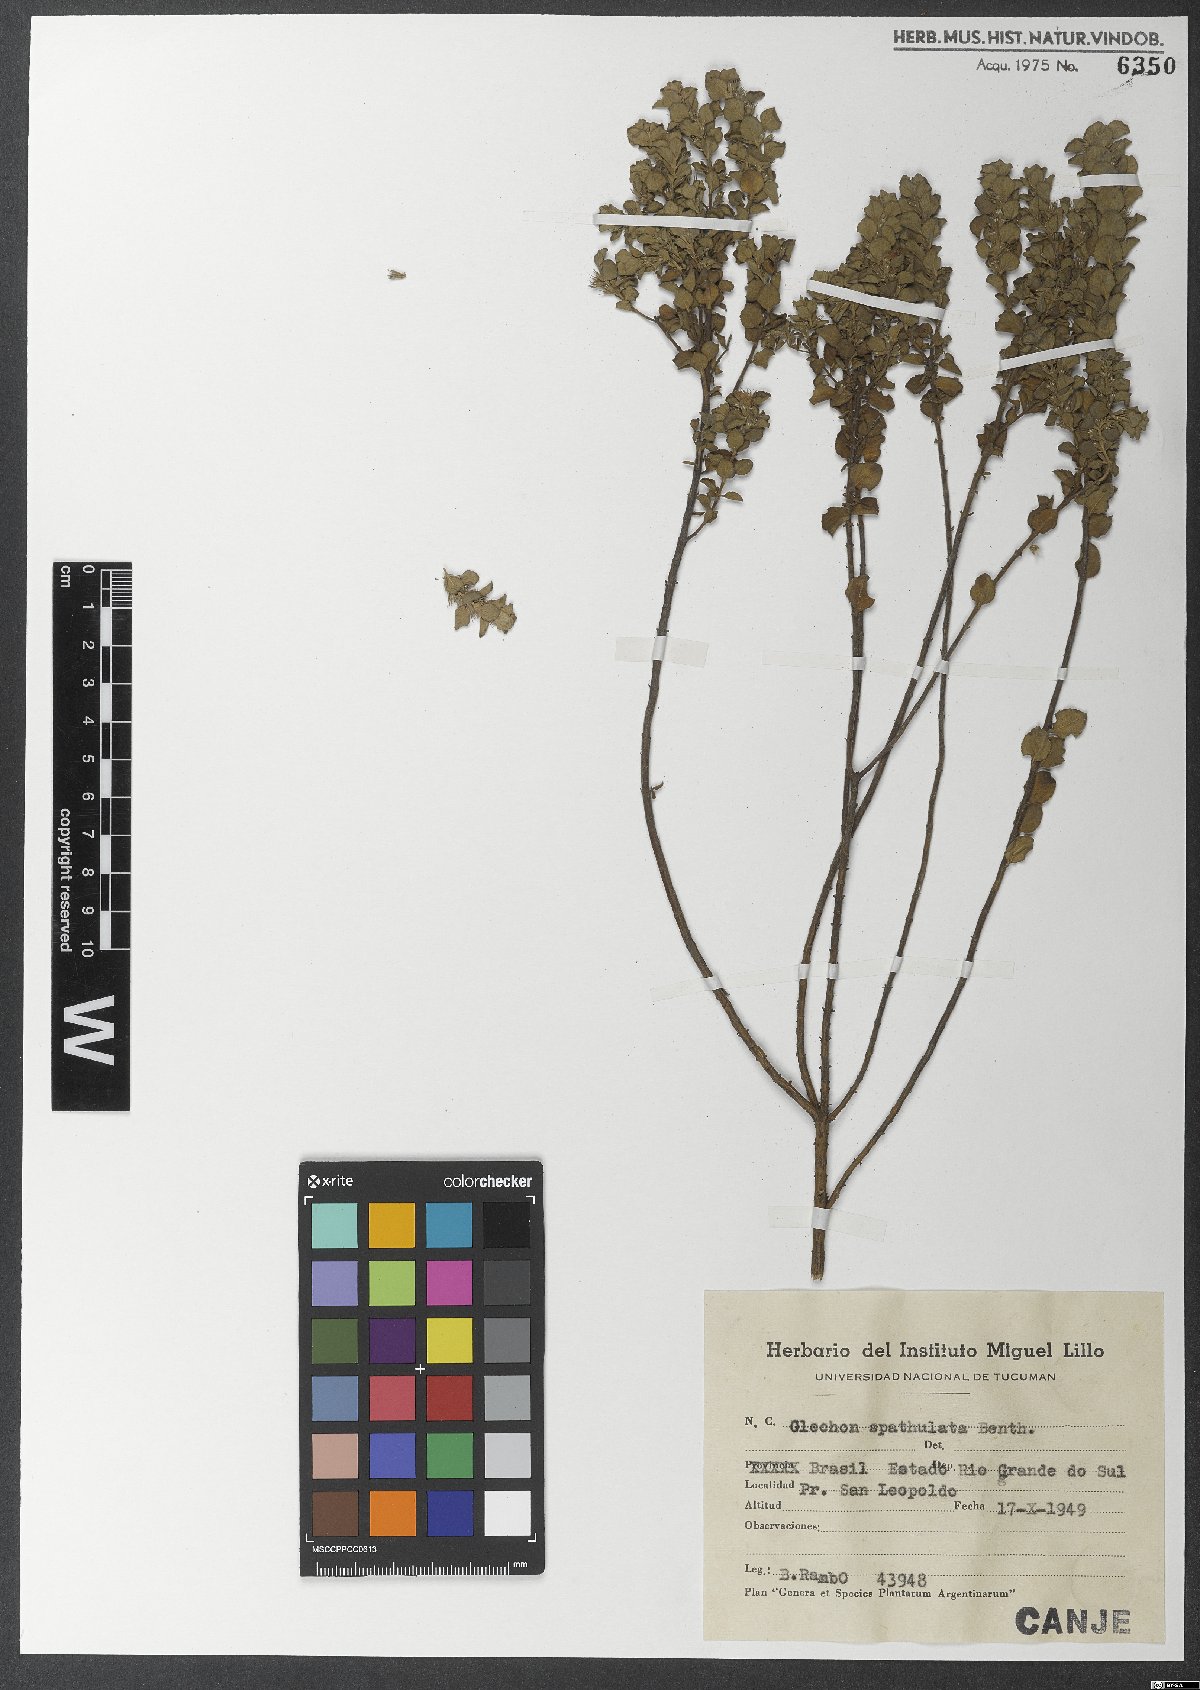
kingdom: Plantae
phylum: Tracheophyta
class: Magnoliopsida
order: Lamiales
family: Lamiaceae
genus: Glechon
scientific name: Glechon thymoides
